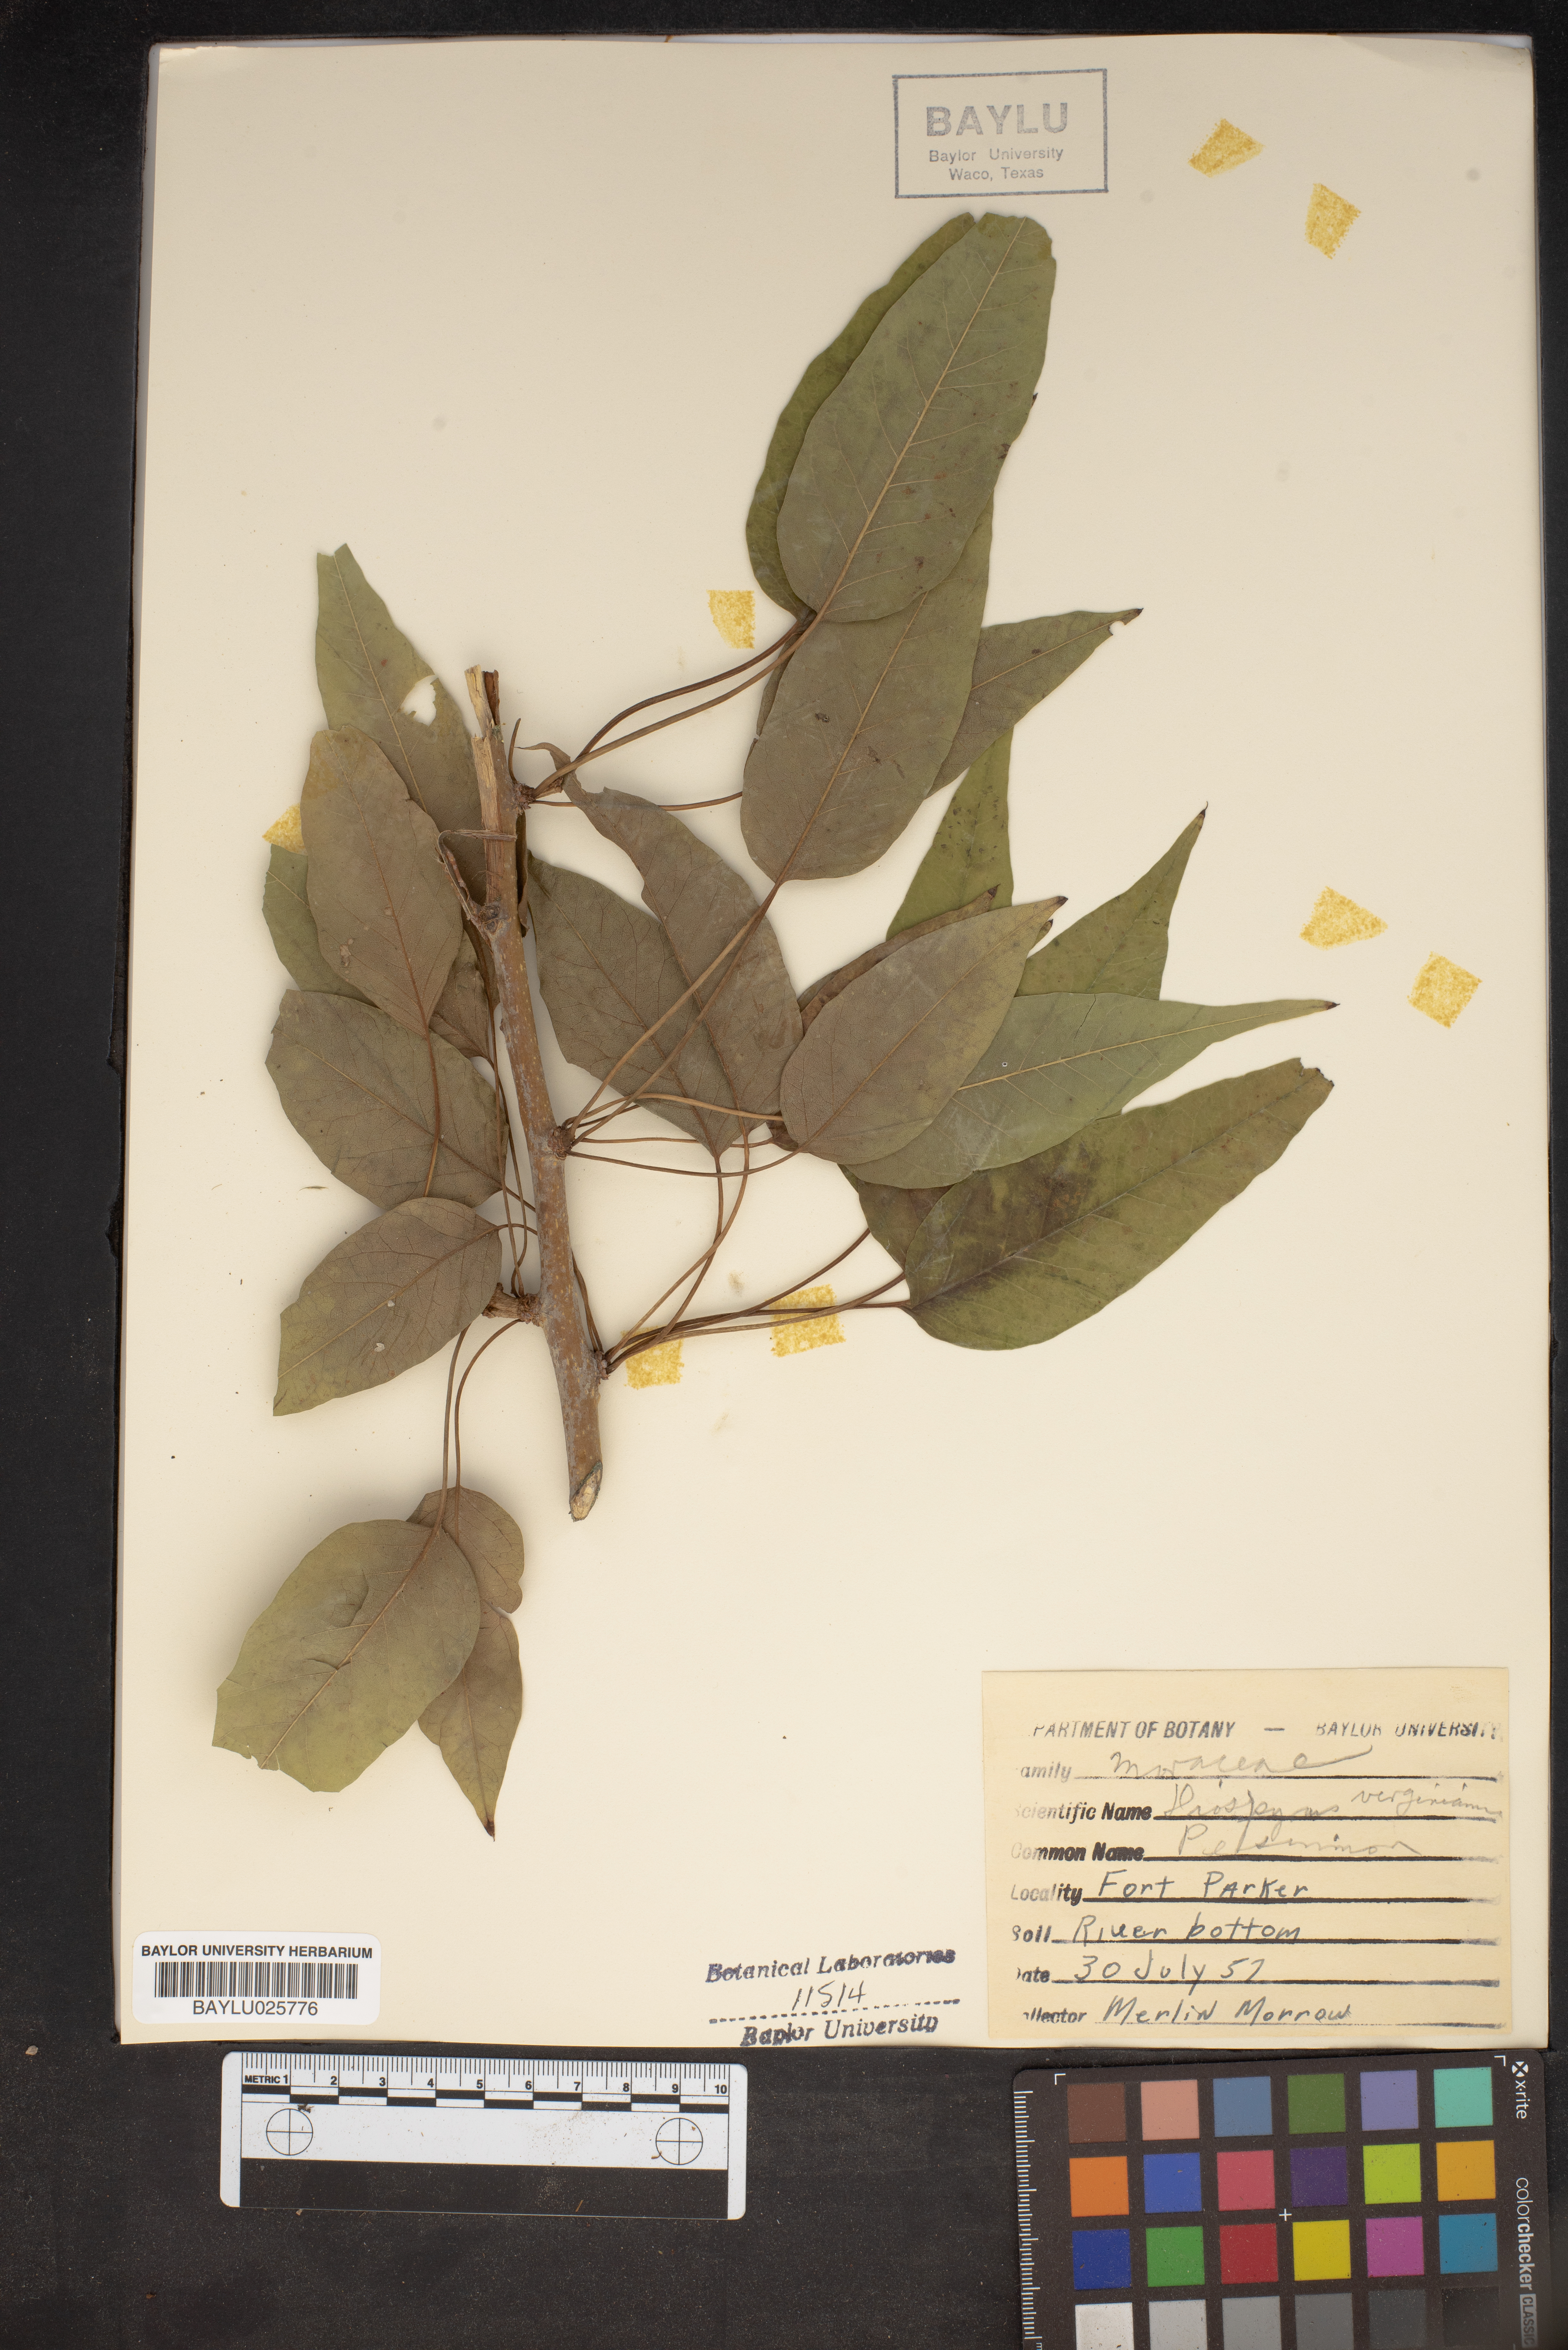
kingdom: Plantae
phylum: Tracheophyta
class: Magnoliopsida
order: Ericales
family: Ebenaceae
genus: Diospyros
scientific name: Diospyros
